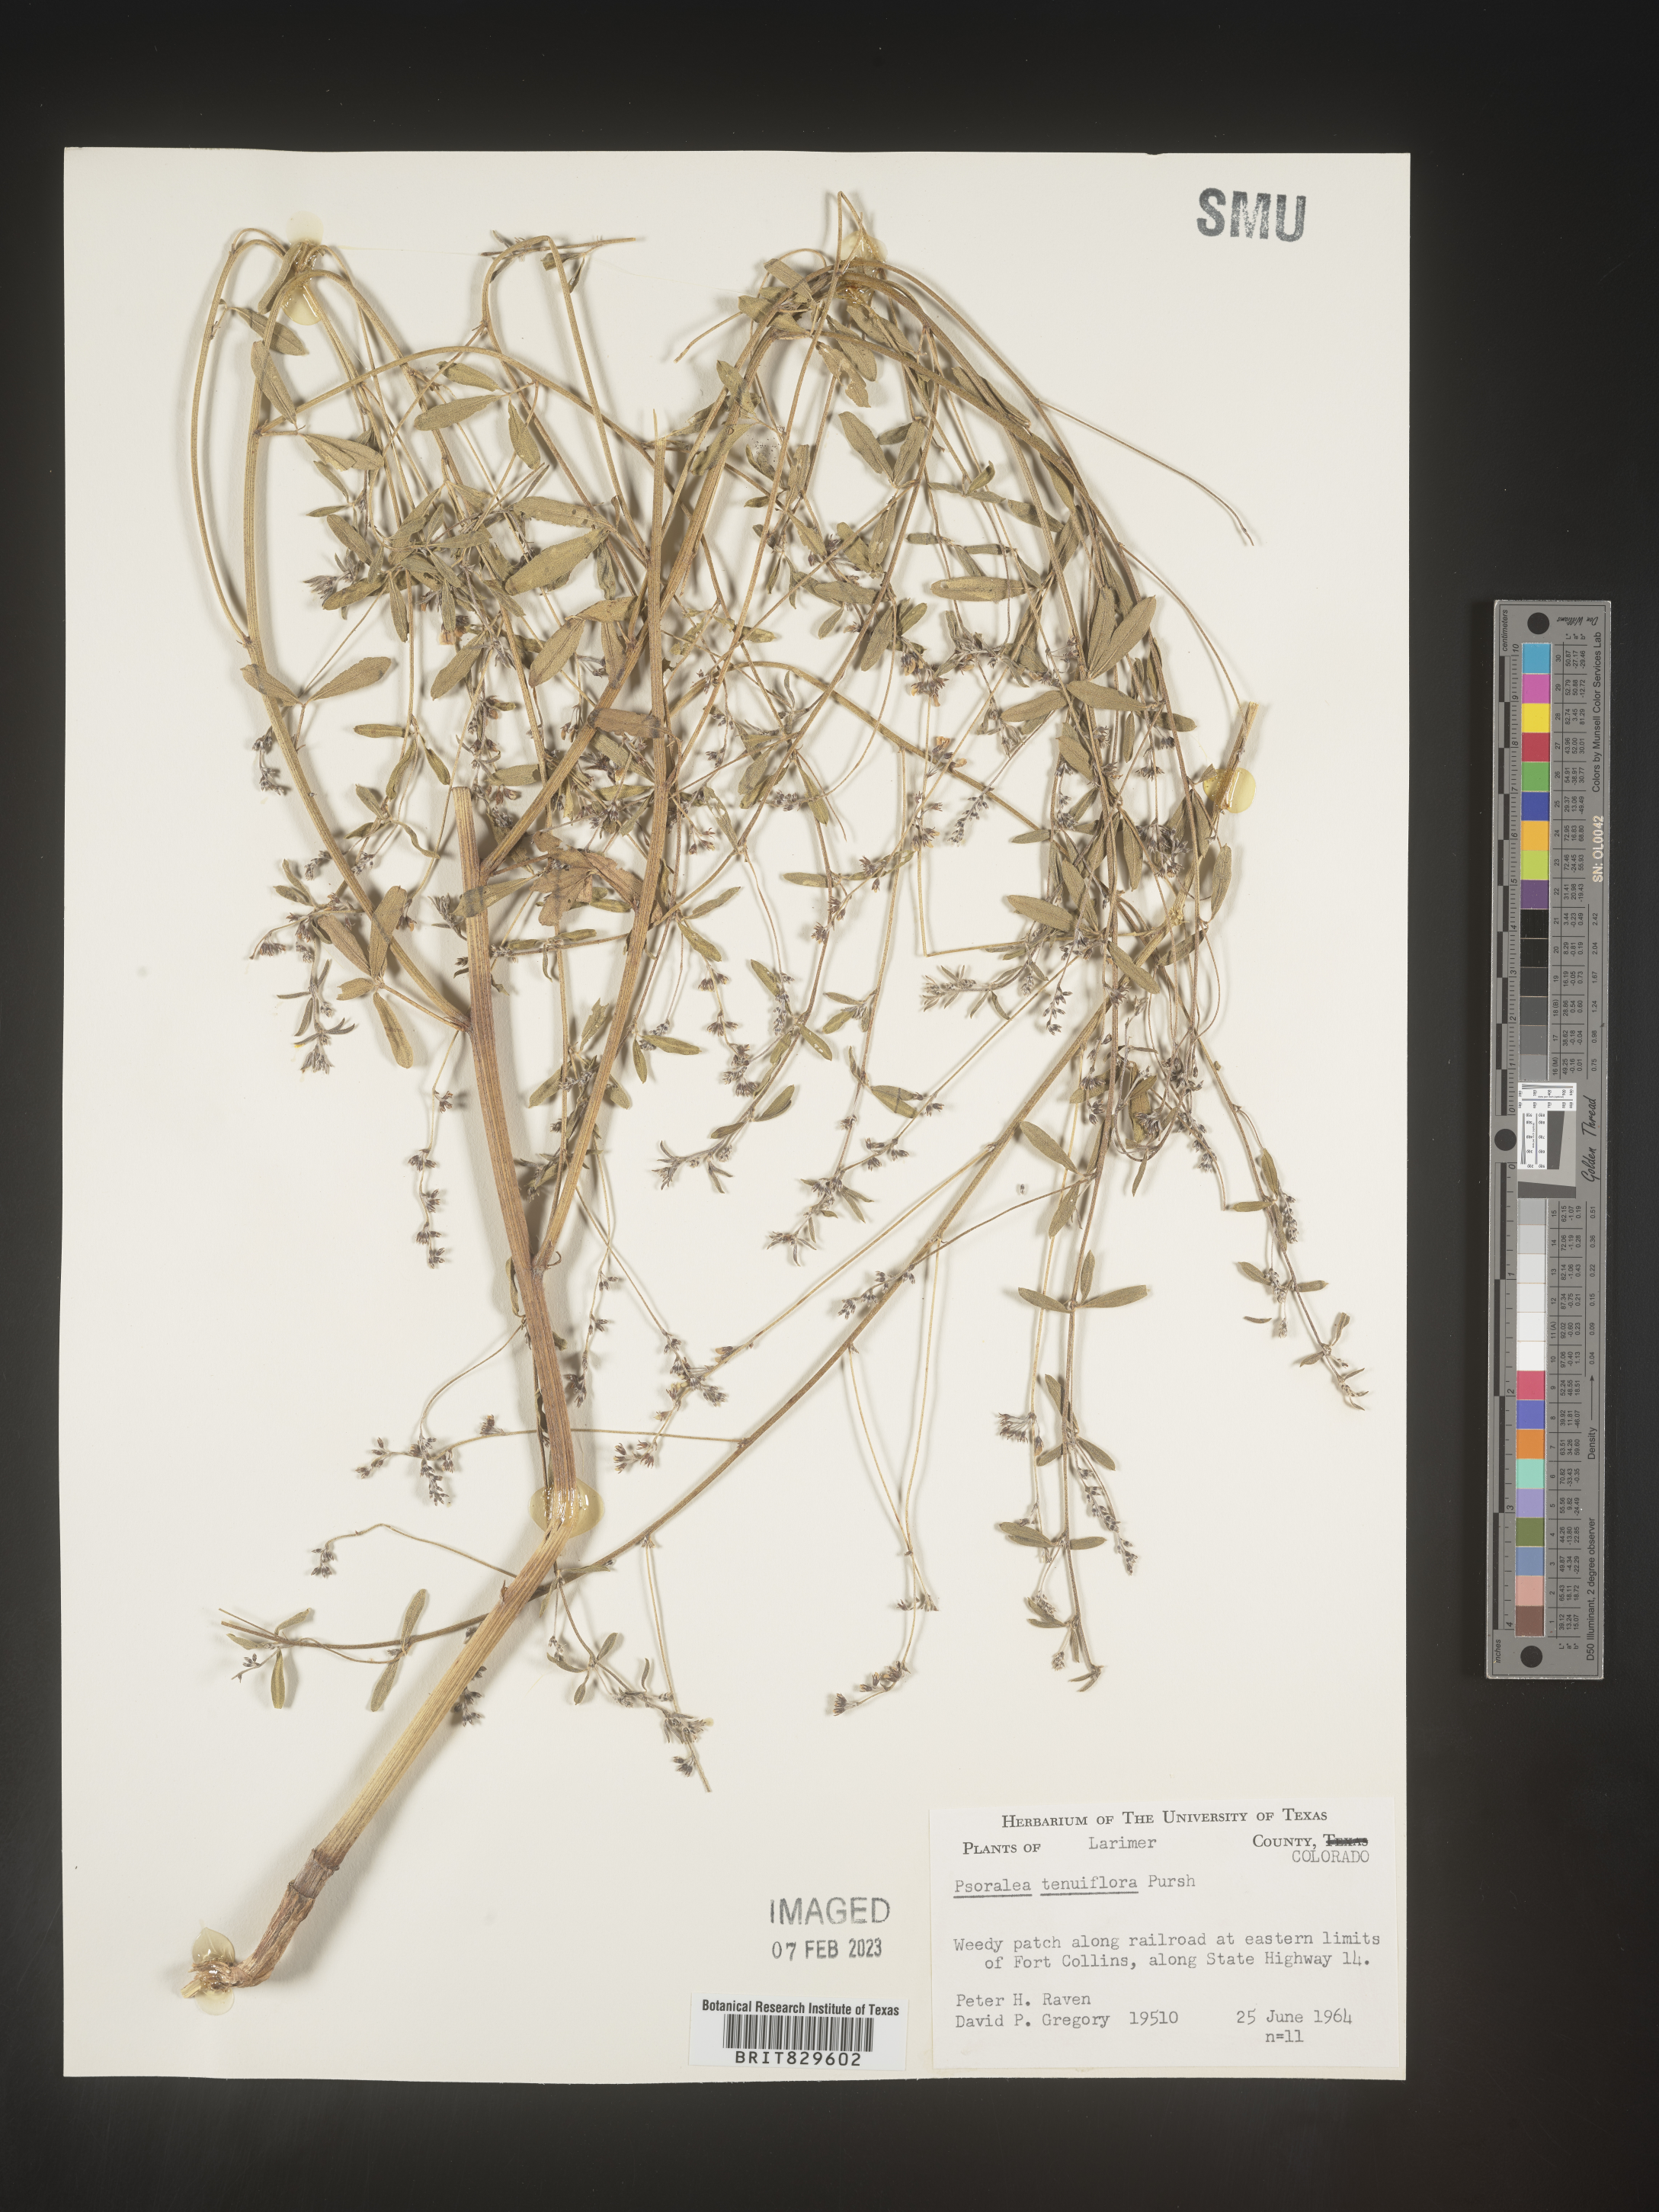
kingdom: Plantae
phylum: Tracheophyta
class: Magnoliopsida
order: Fabales
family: Fabaceae
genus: Pediomelum
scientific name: Pediomelum tenuiflorum
